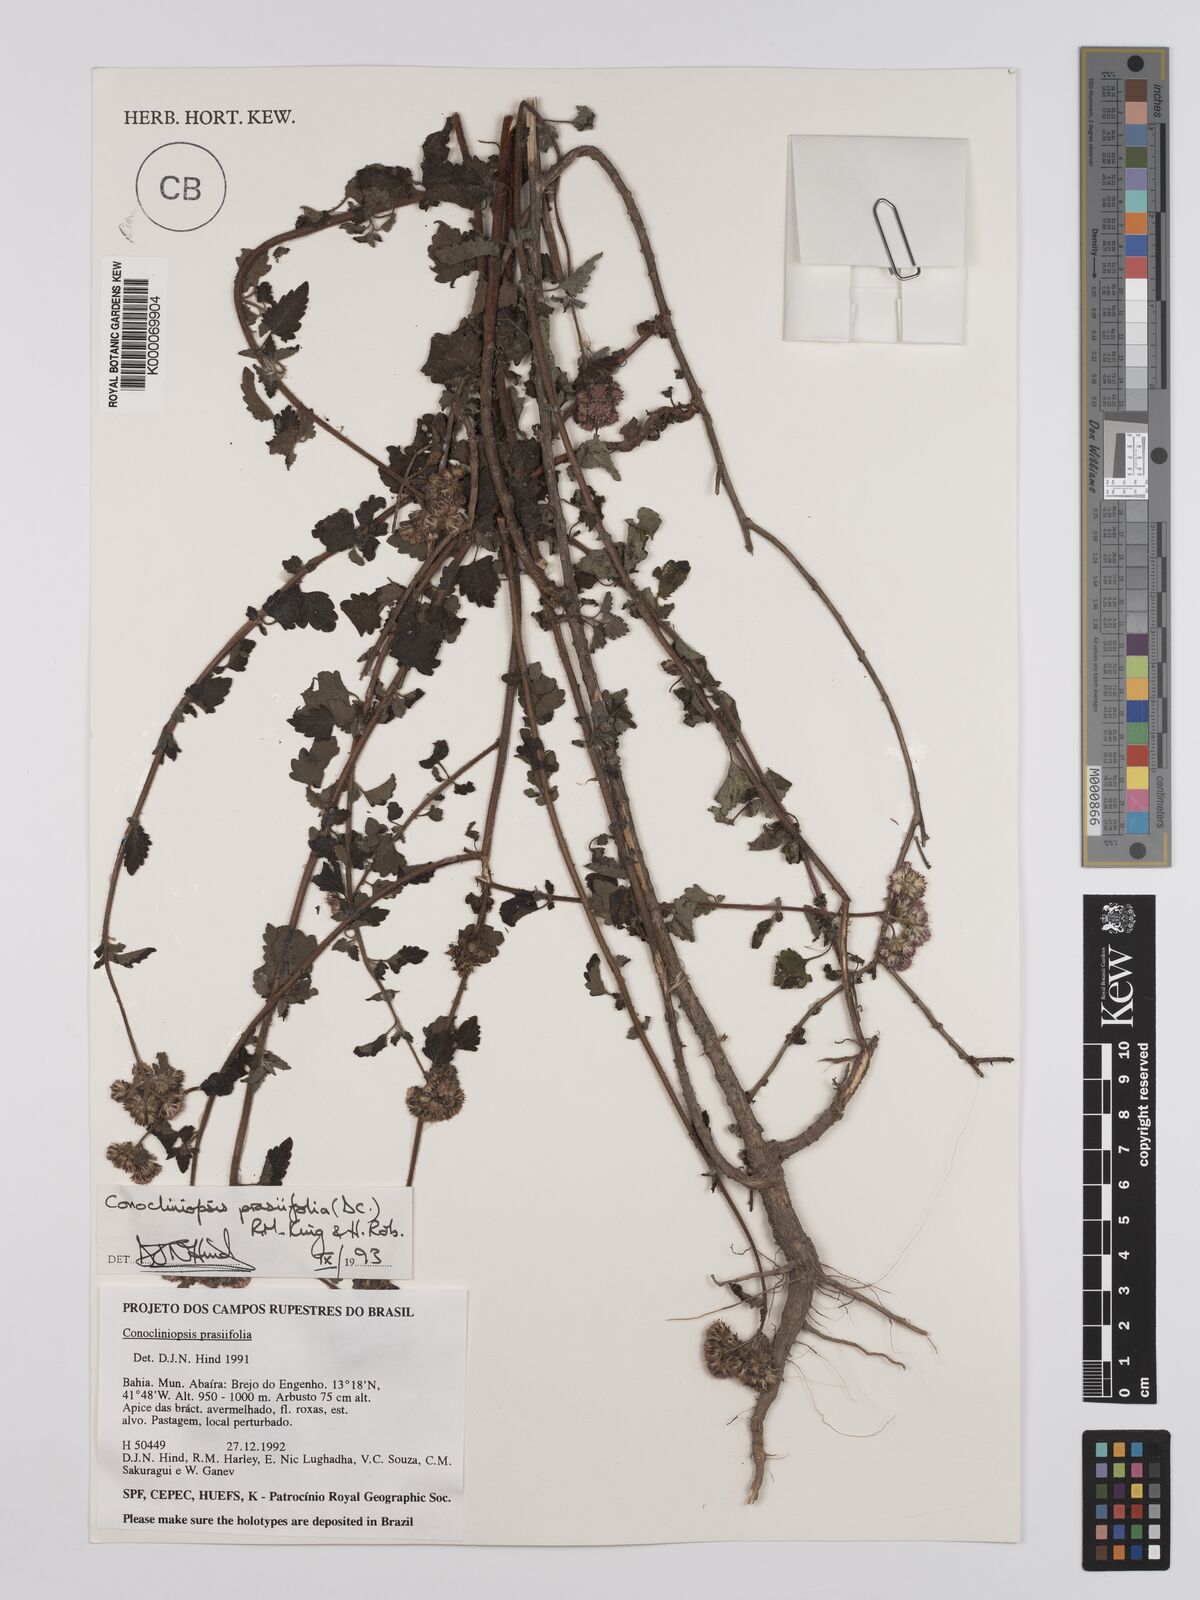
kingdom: Plantae
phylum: Tracheophyta
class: Magnoliopsida
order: Asterales
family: Asteraceae
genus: Conocliniopsis
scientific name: Conocliniopsis grossedentata
